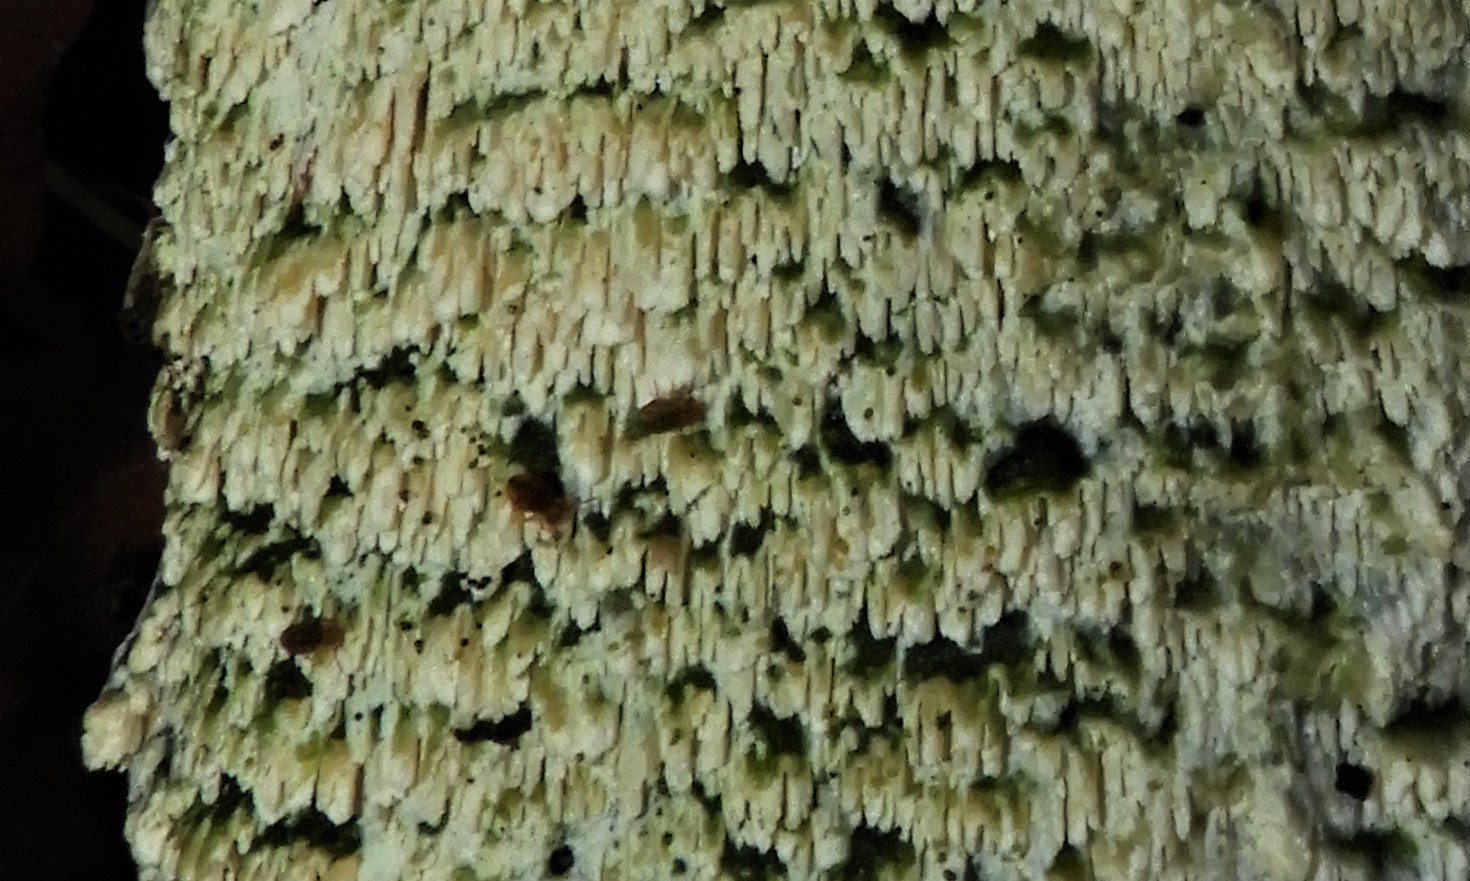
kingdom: Fungi
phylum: Basidiomycota
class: Agaricomycetes
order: Hymenochaetales
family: Schizoporaceae
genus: Xylodon
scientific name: Xylodon
